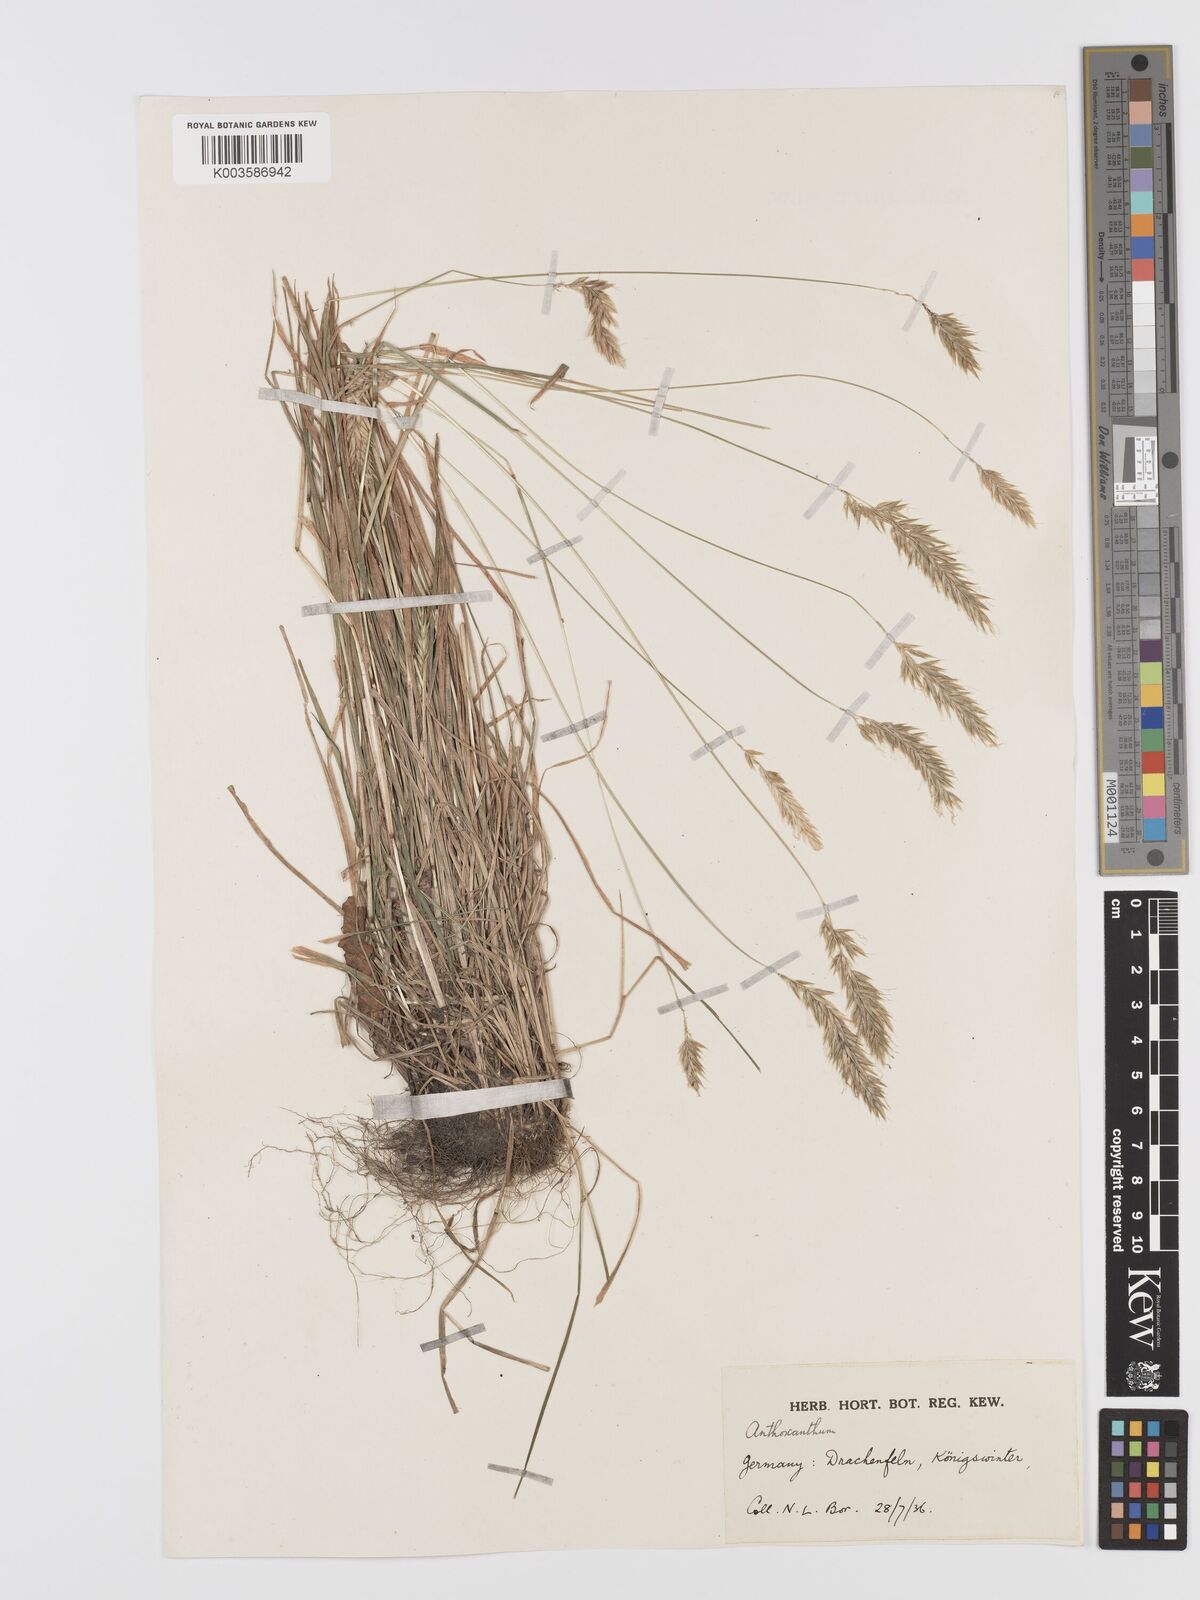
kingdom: Plantae
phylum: Tracheophyta
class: Liliopsida
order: Poales
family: Poaceae
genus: Anthoxanthum
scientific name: Anthoxanthum
